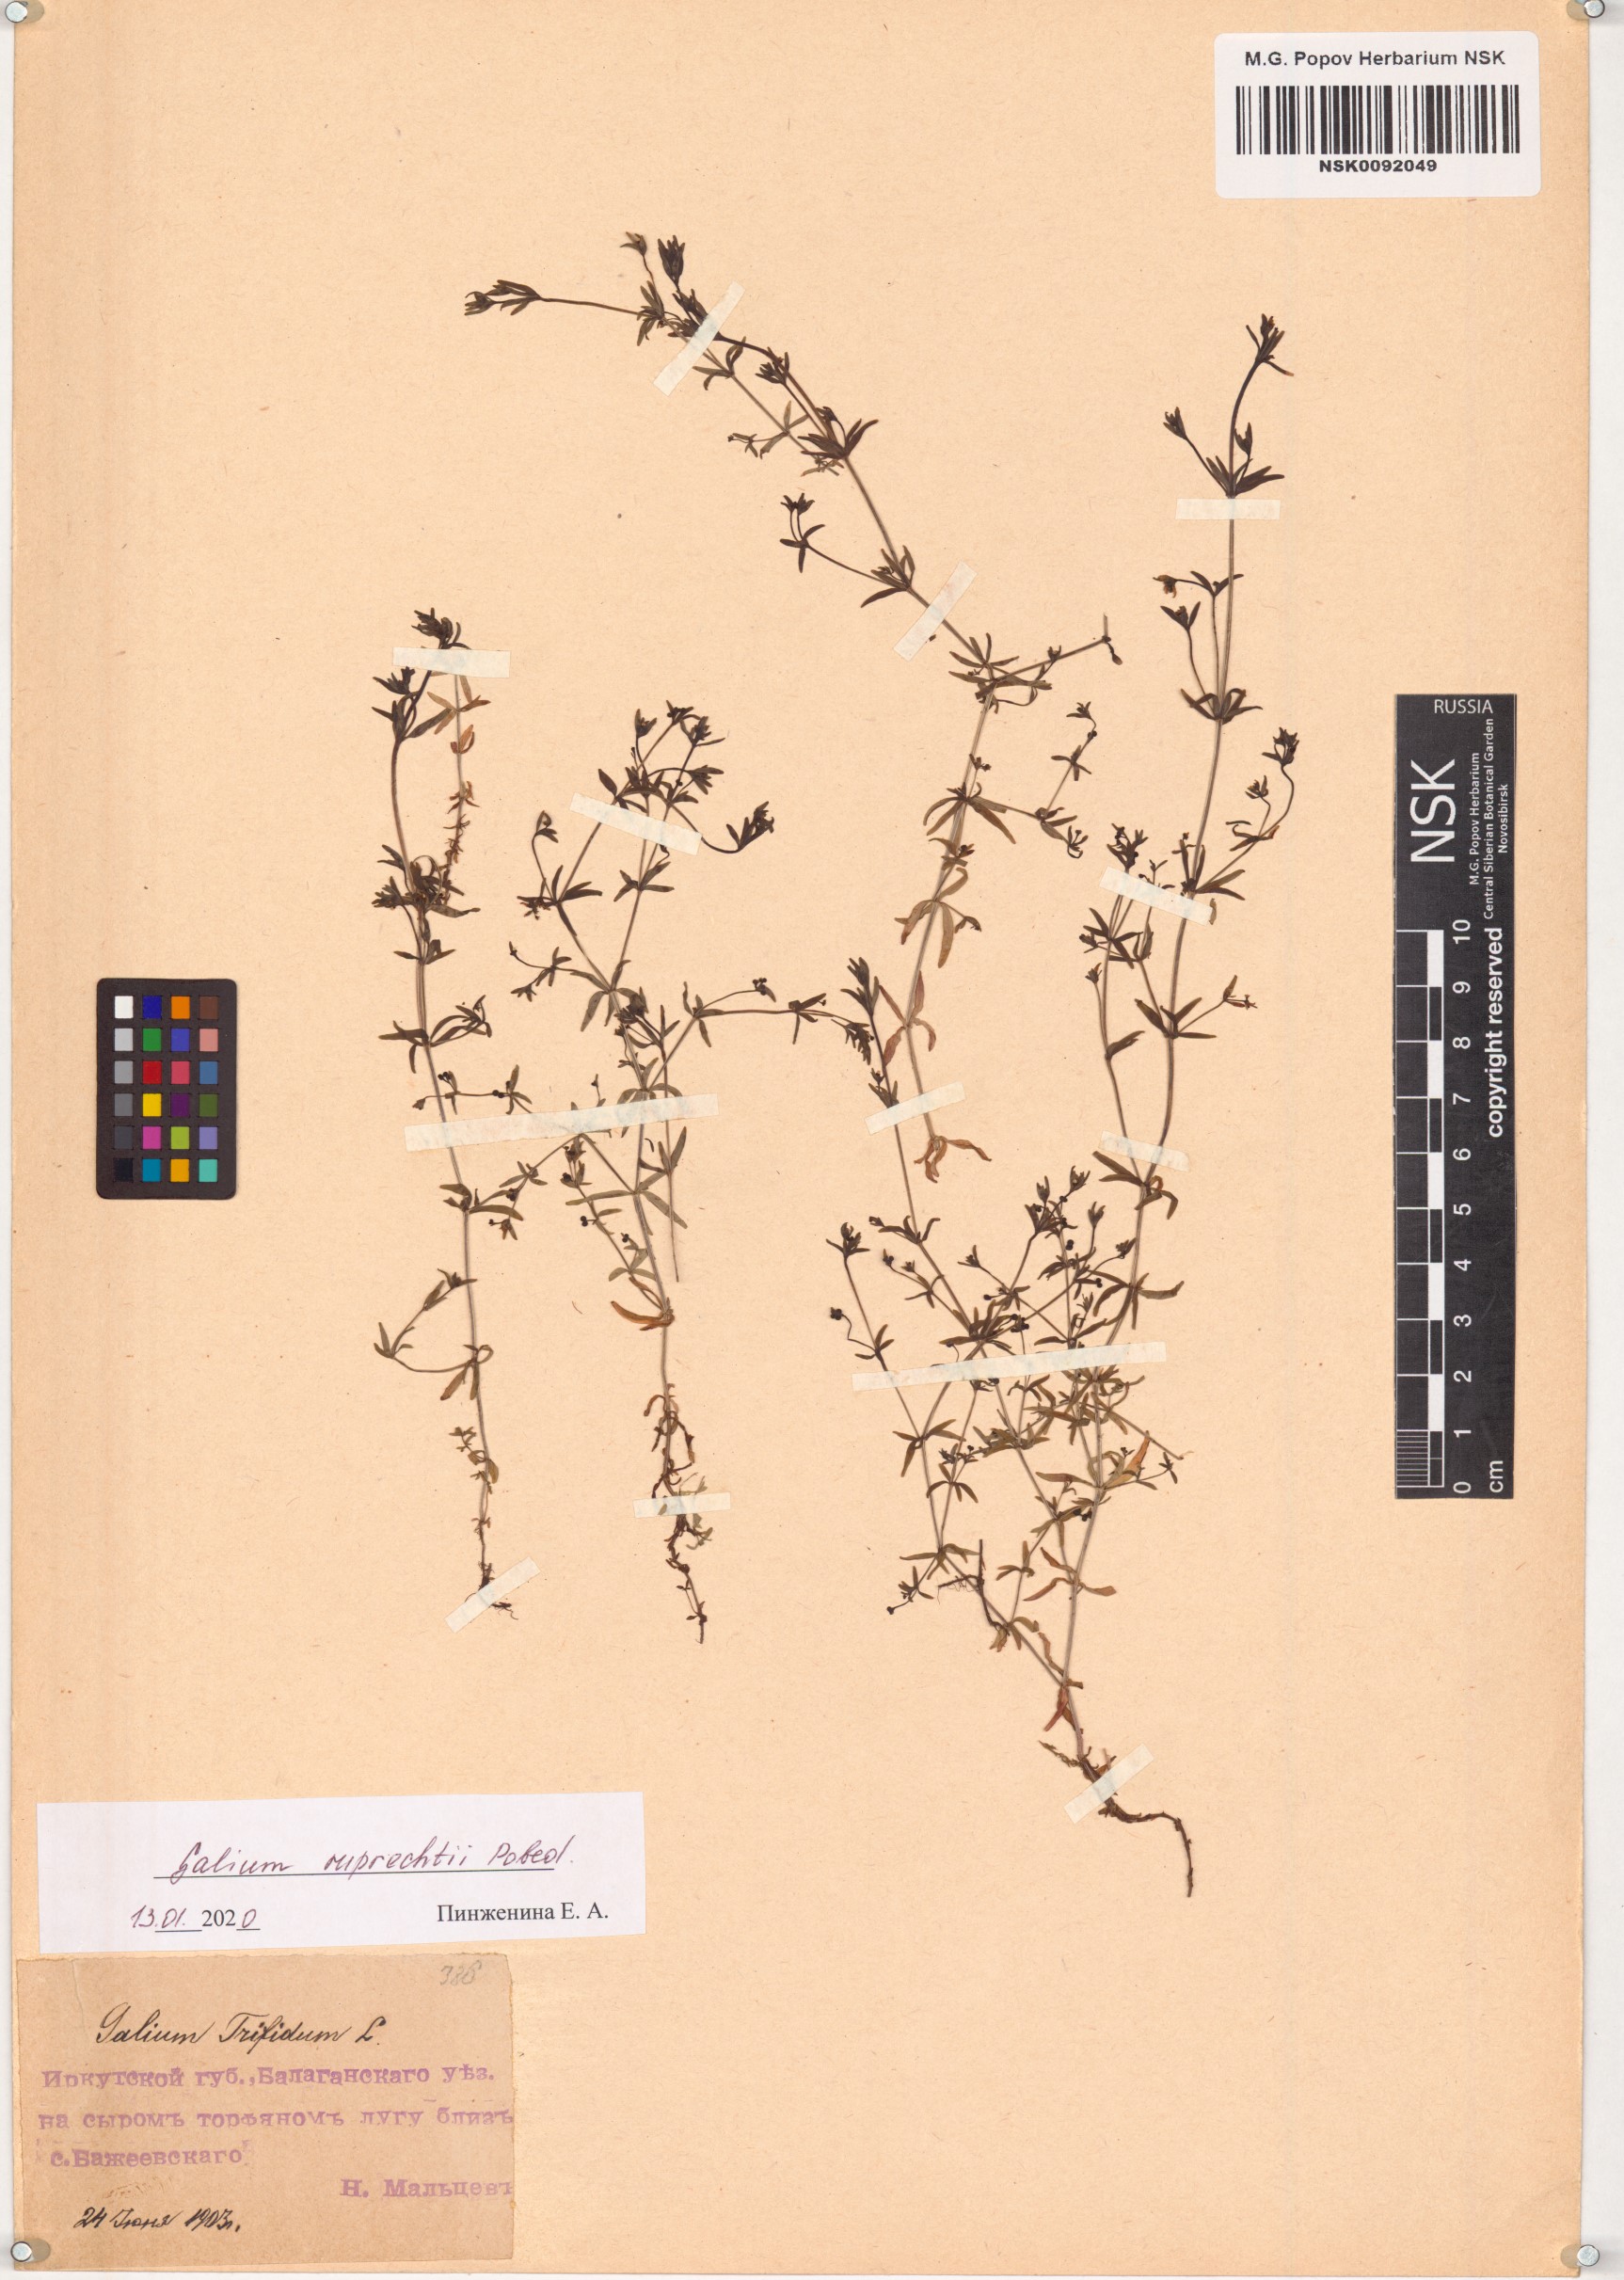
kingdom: Plantae
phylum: Tracheophyta
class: Magnoliopsida
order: Gentianales
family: Rubiaceae
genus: Galium
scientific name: Galium trifidum
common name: Small bedstraw
